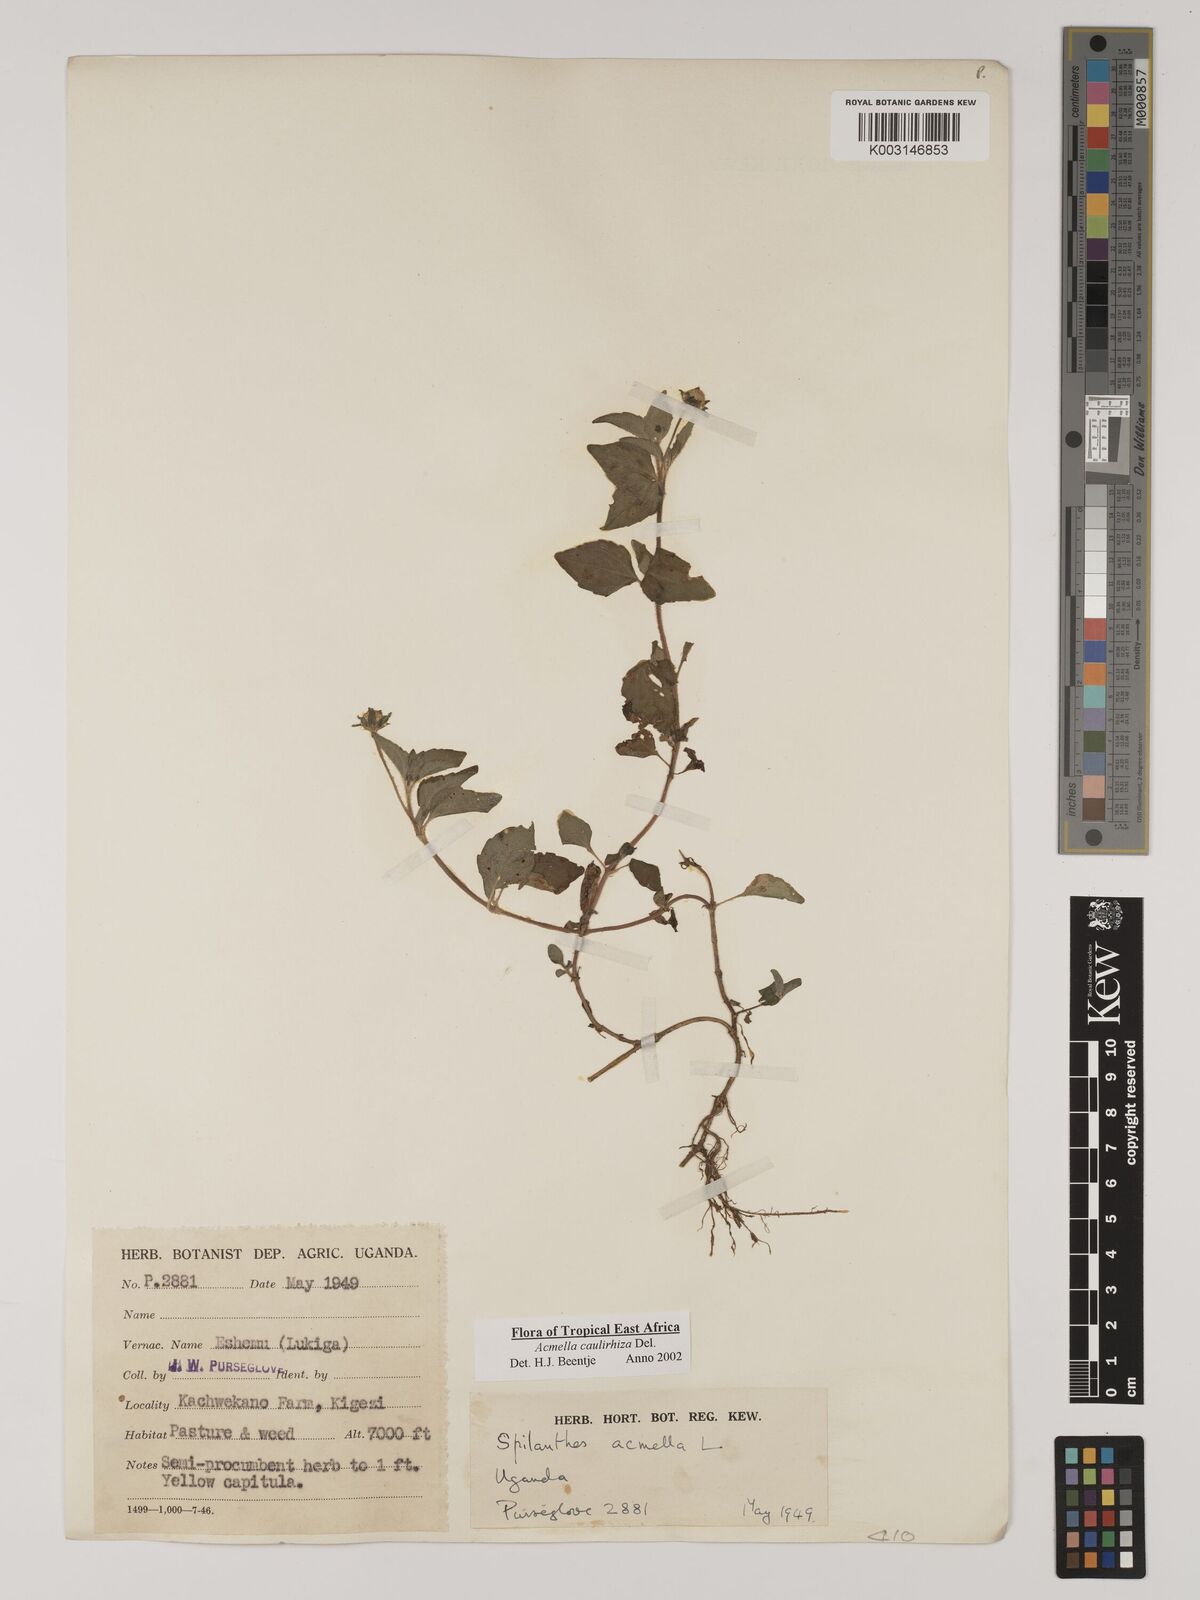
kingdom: Plantae
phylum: Tracheophyta
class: Magnoliopsida
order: Asterales
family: Asteraceae
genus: Acmella
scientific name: Acmella caulirhiza
